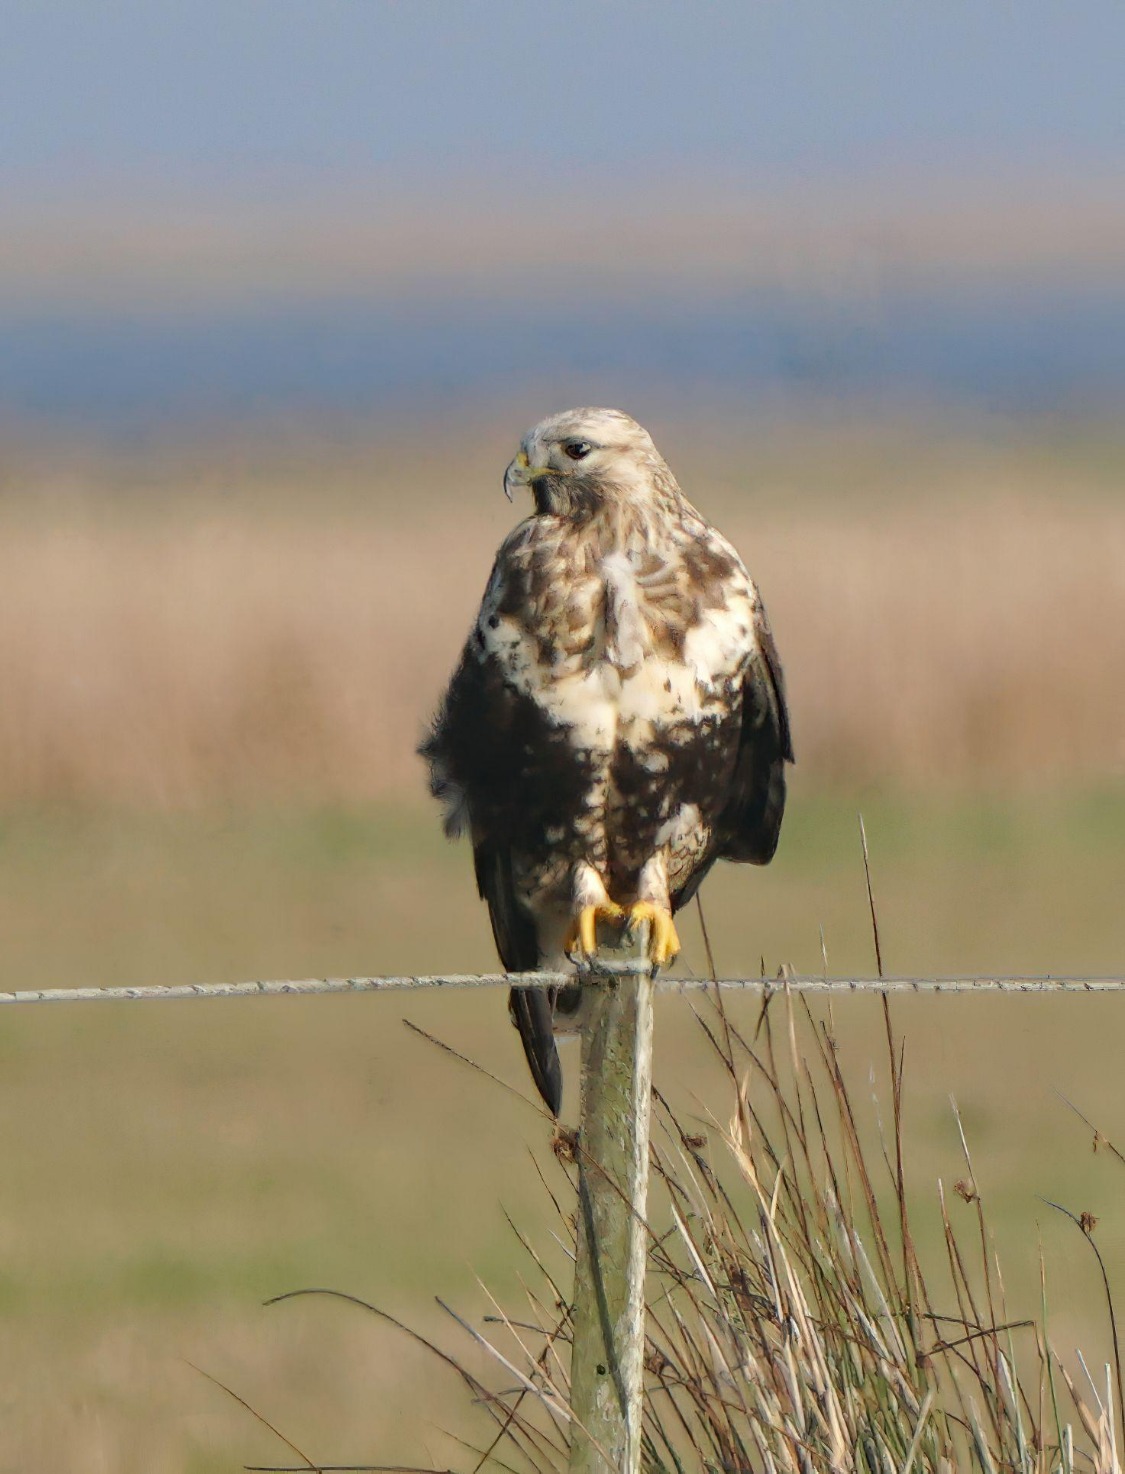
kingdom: Animalia
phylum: Chordata
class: Aves
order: Accipitriformes
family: Accipitridae
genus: Buteo
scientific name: Buteo lagopus
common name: Fjeldvåge
